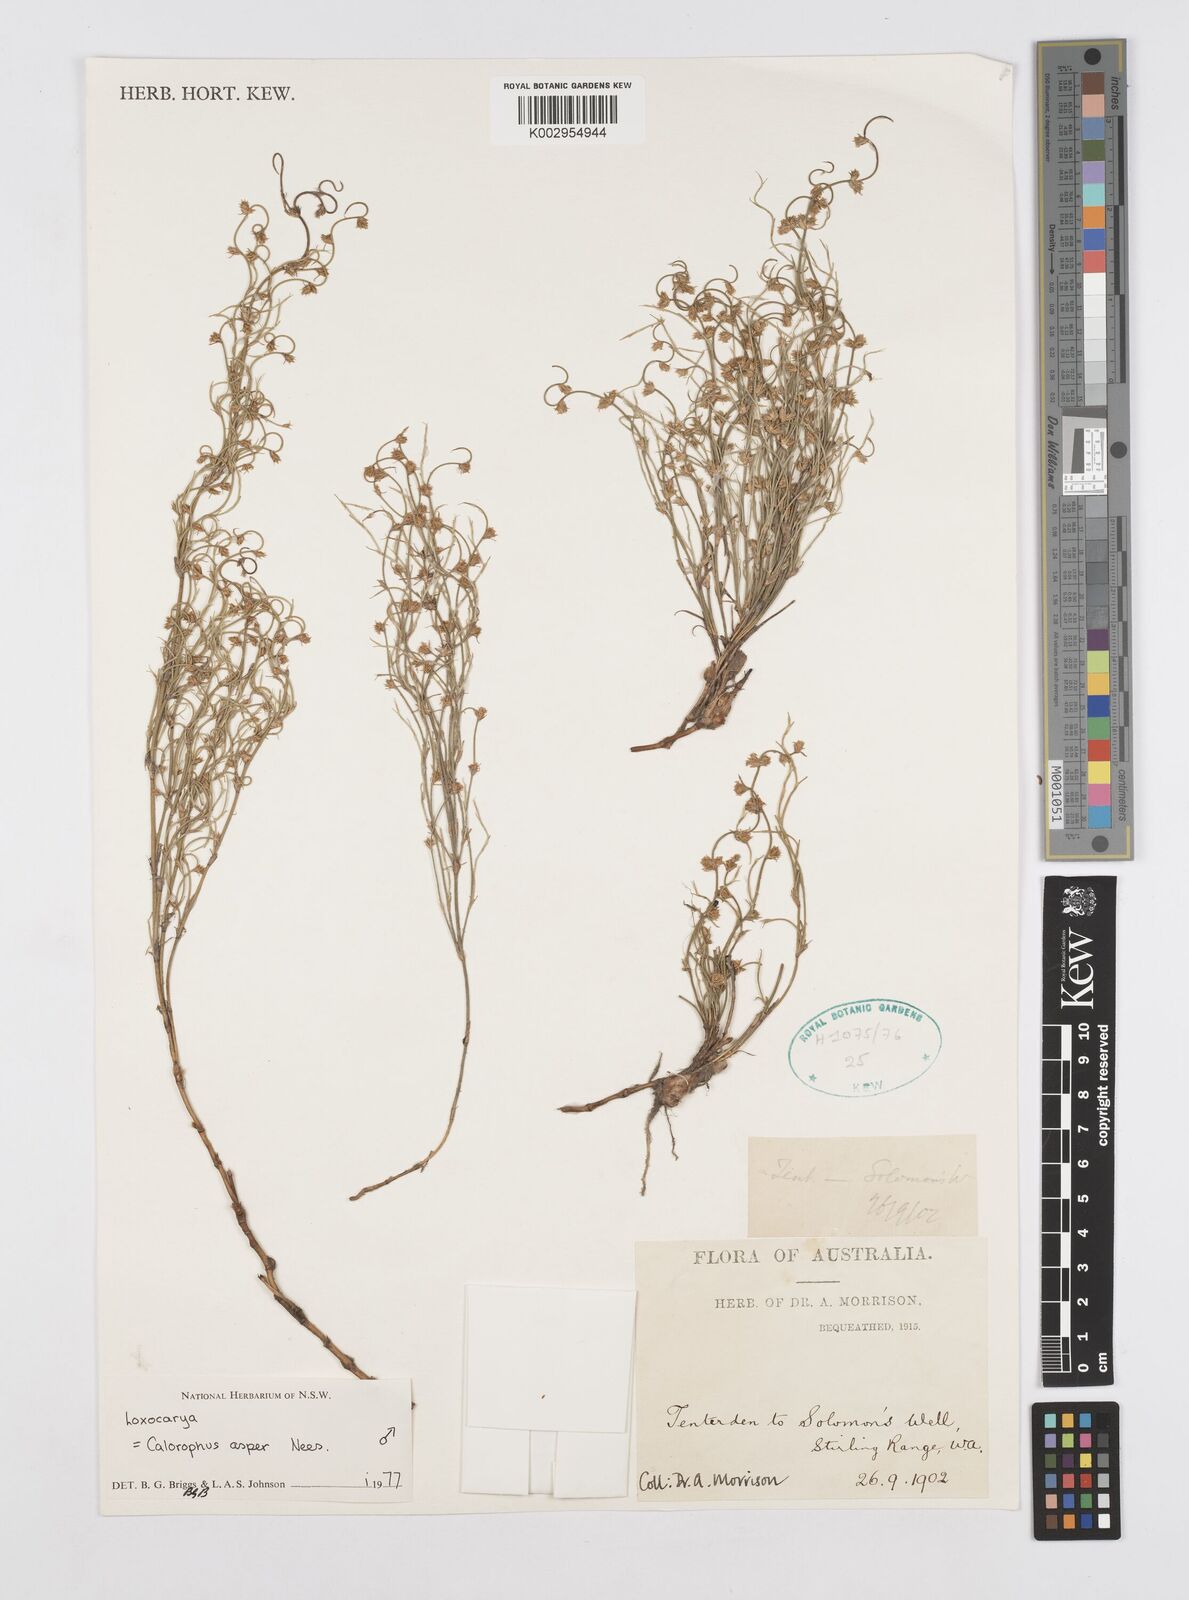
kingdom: Plantae
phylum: Tracheophyta
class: Liliopsida
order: Poales
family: Restionaceae
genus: Desmocladus
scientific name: Desmocladus asper
